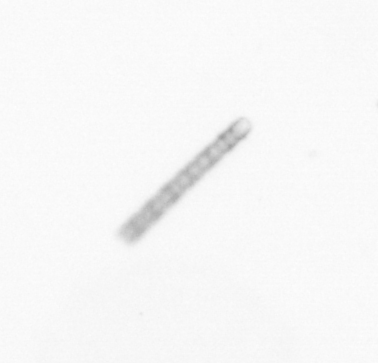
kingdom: Chromista
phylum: Ochrophyta
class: Bacillariophyceae
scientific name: Bacillariophyceae
